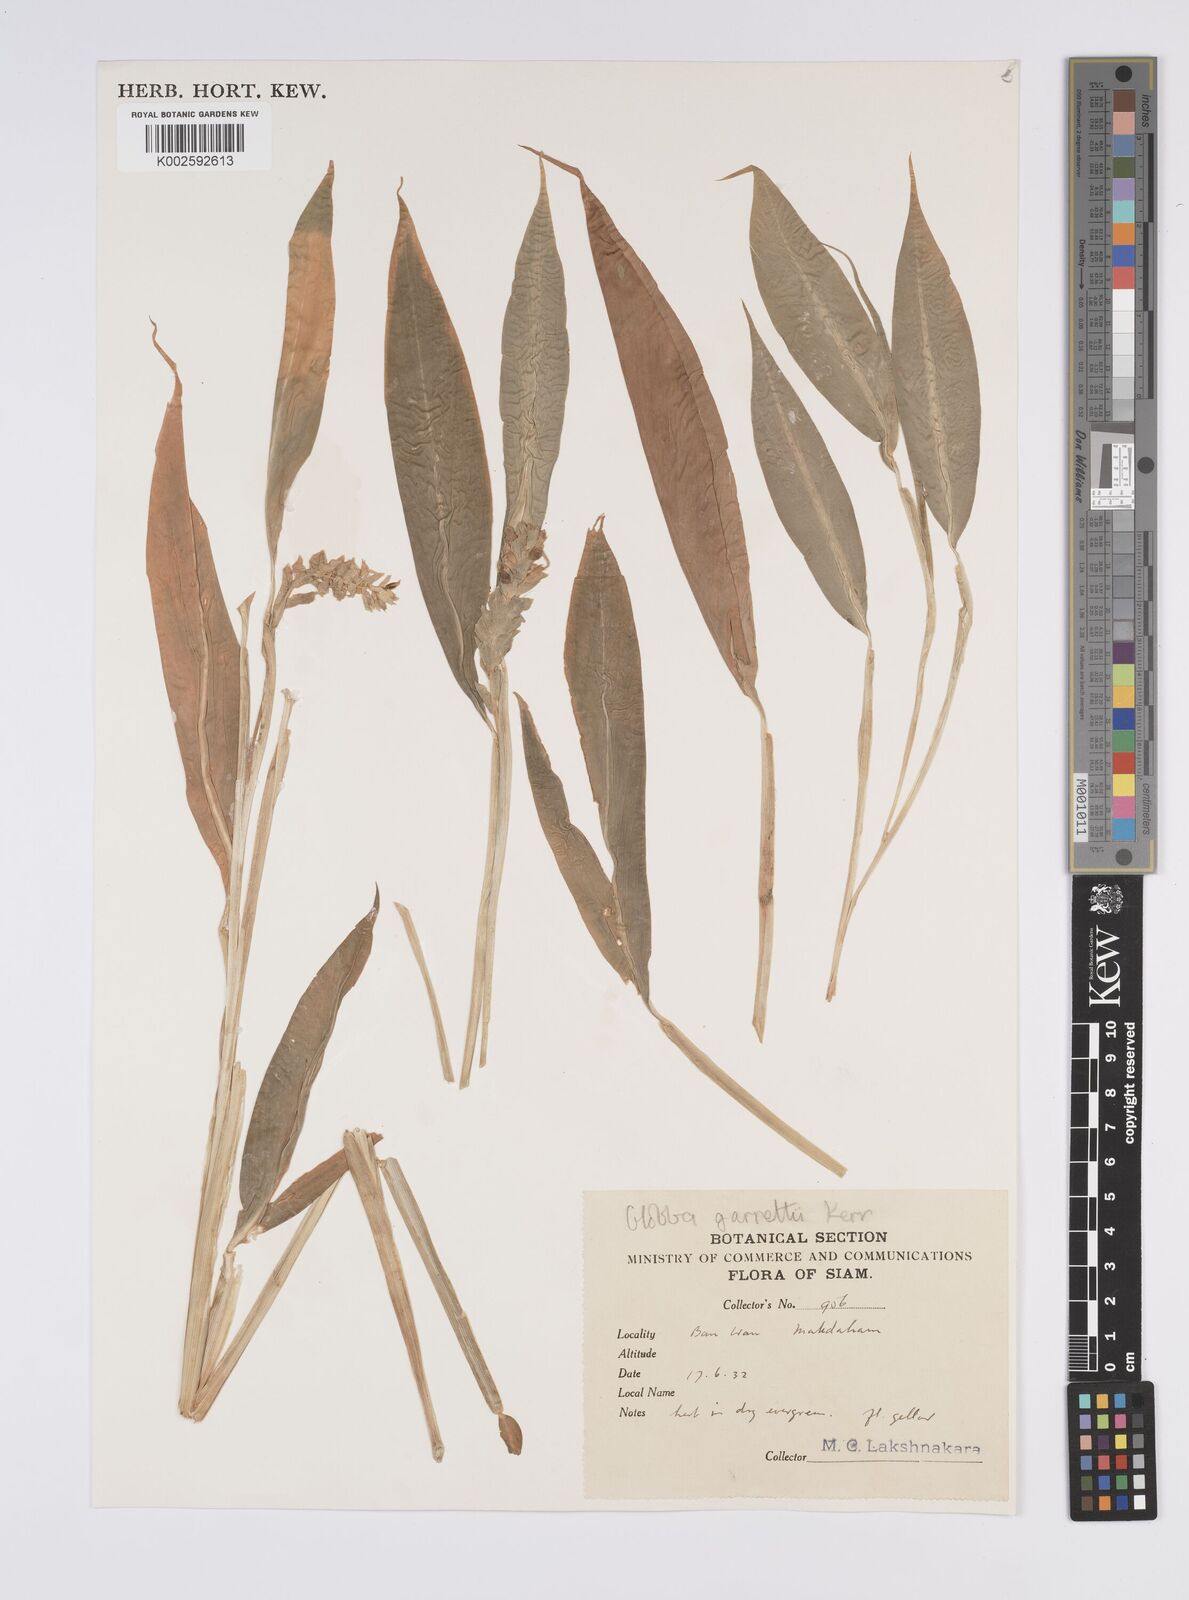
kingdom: Plantae
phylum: Tracheophyta
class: Liliopsida
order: Zingiberales
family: Zingiberaceae
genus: Globba
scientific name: Globba garrettii
